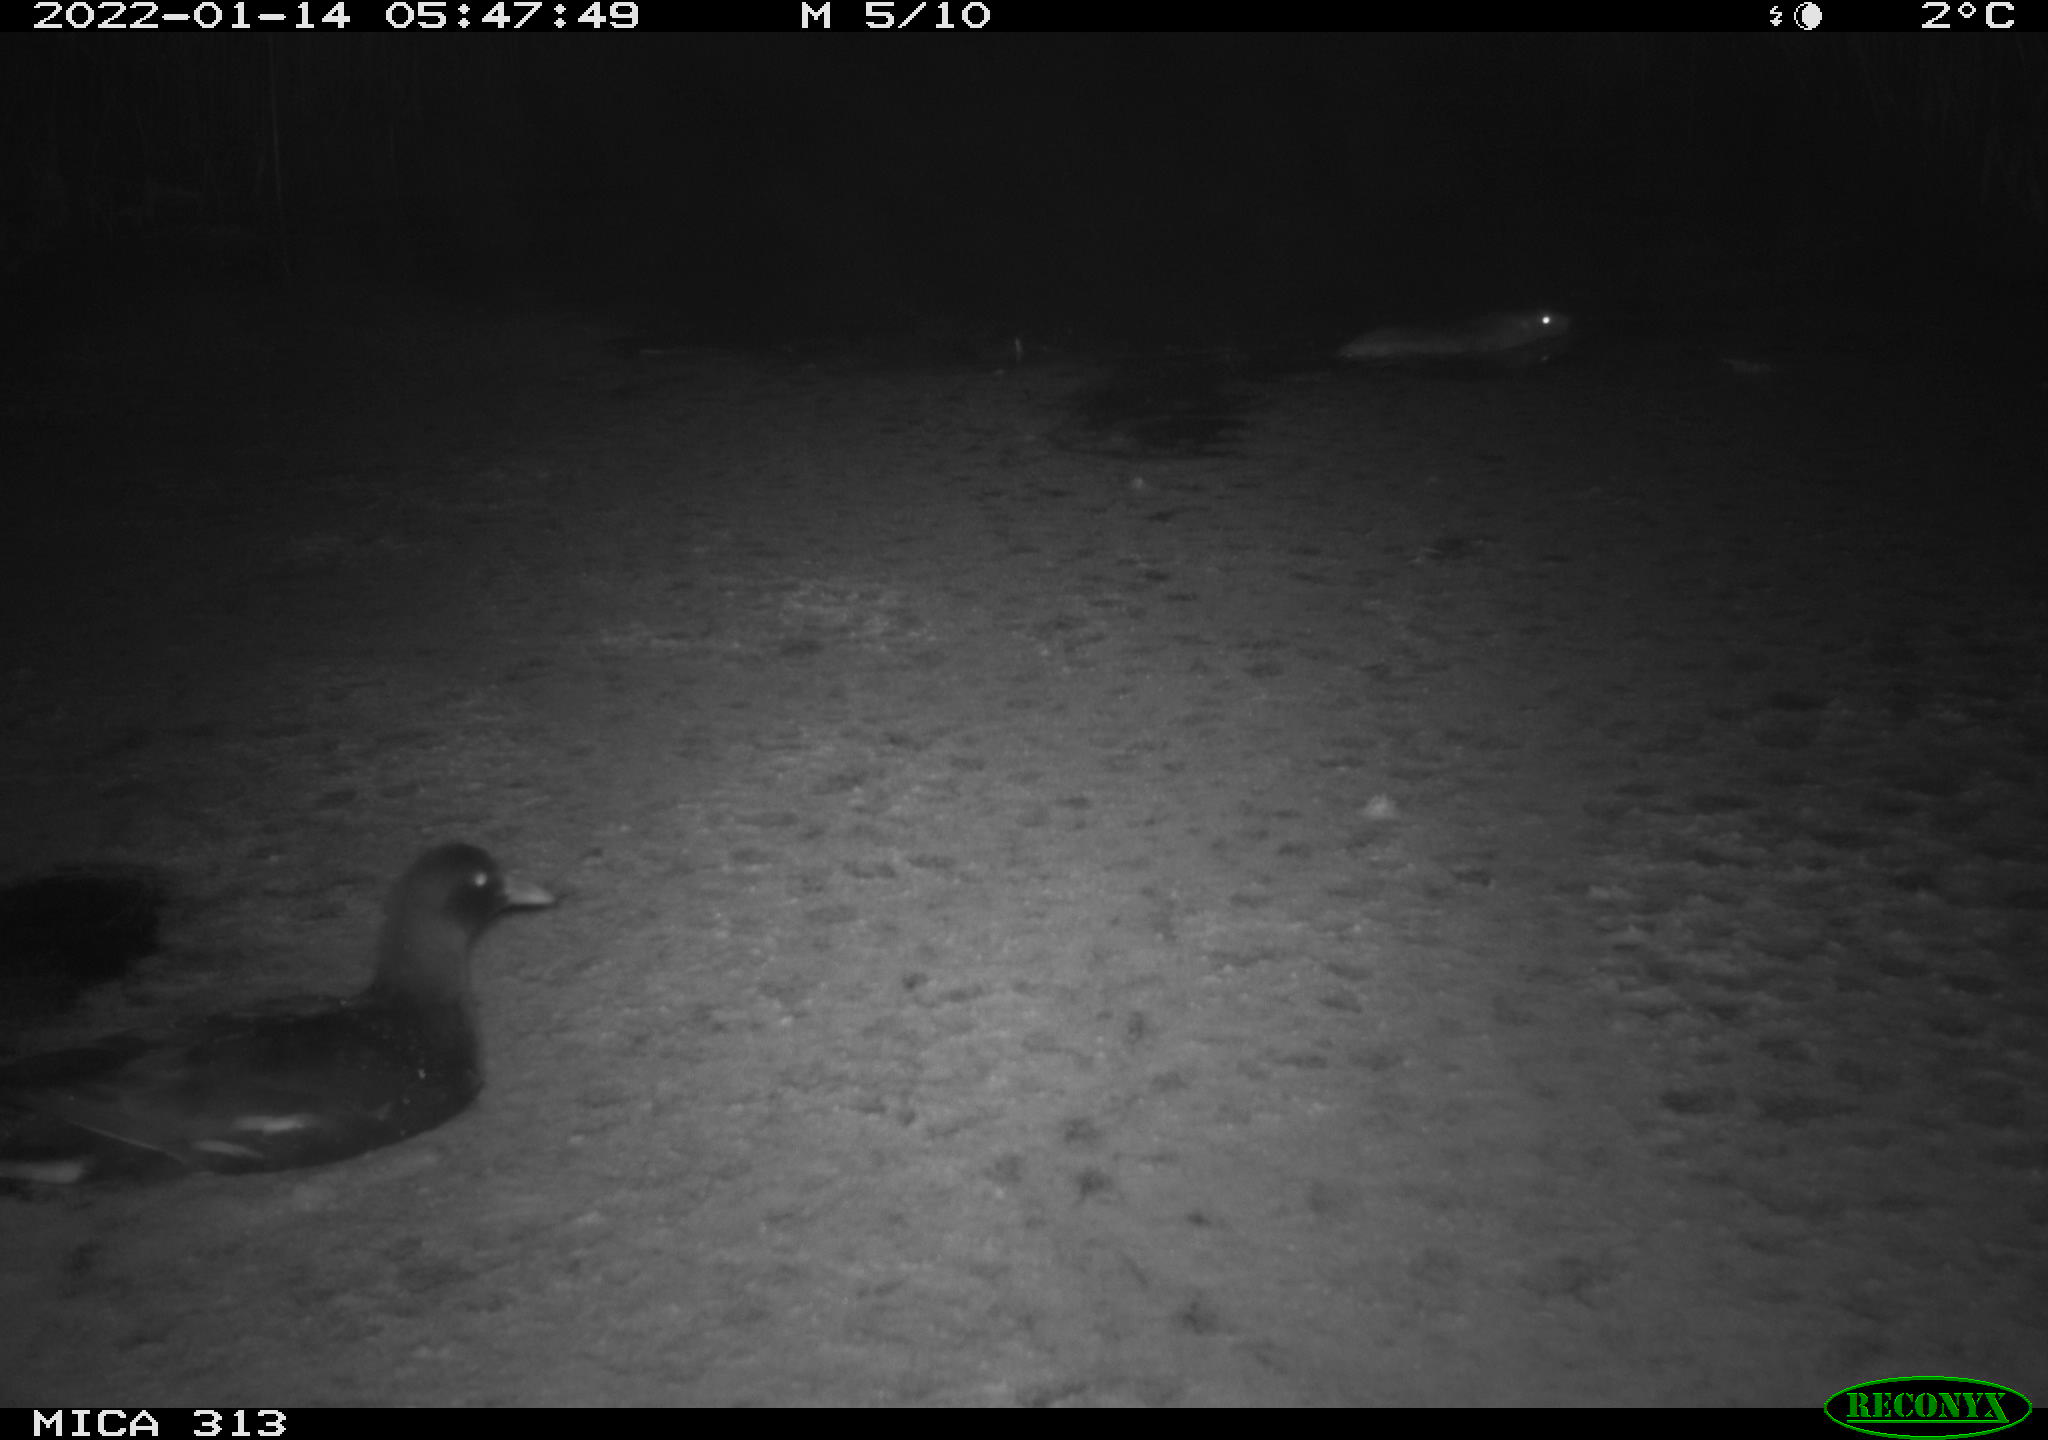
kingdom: Animalia
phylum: Chordata
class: Aves
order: Gruiformes
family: Rallidae
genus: Gallinula
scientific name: Gallinula chloropus
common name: Common moorhen
